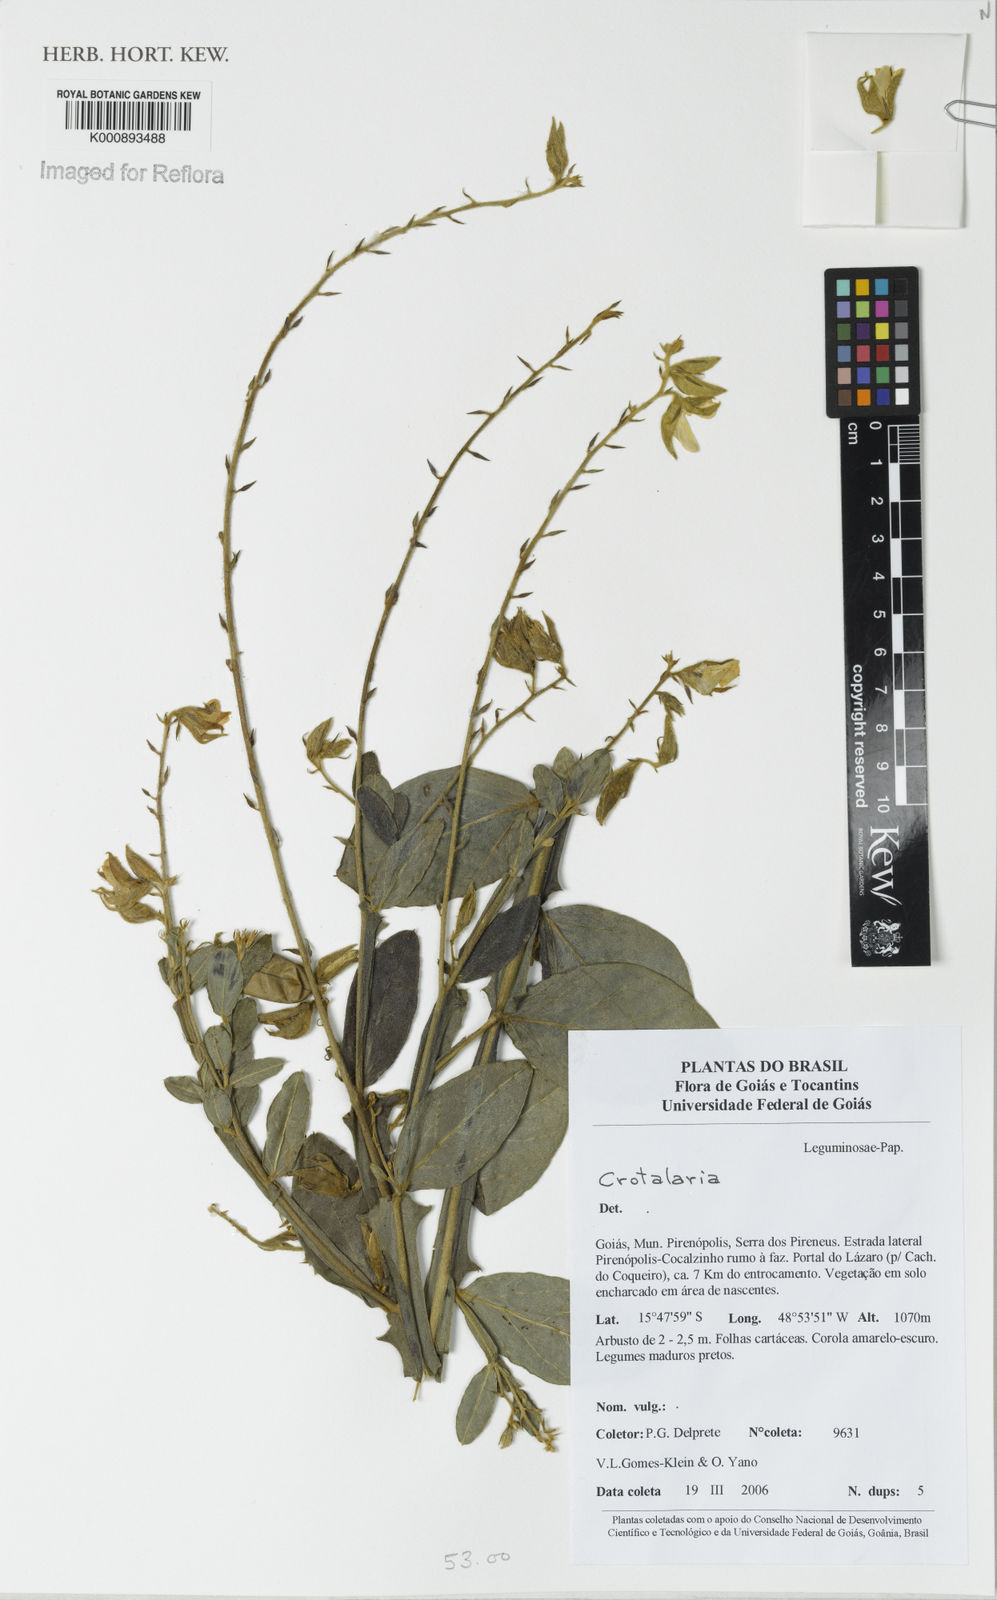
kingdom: Plantae
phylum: Tracheophyta
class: Magnoliopsida
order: Fabales
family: Fabaceae
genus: Crotalaria
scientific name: Crotalaria subdecurrens
